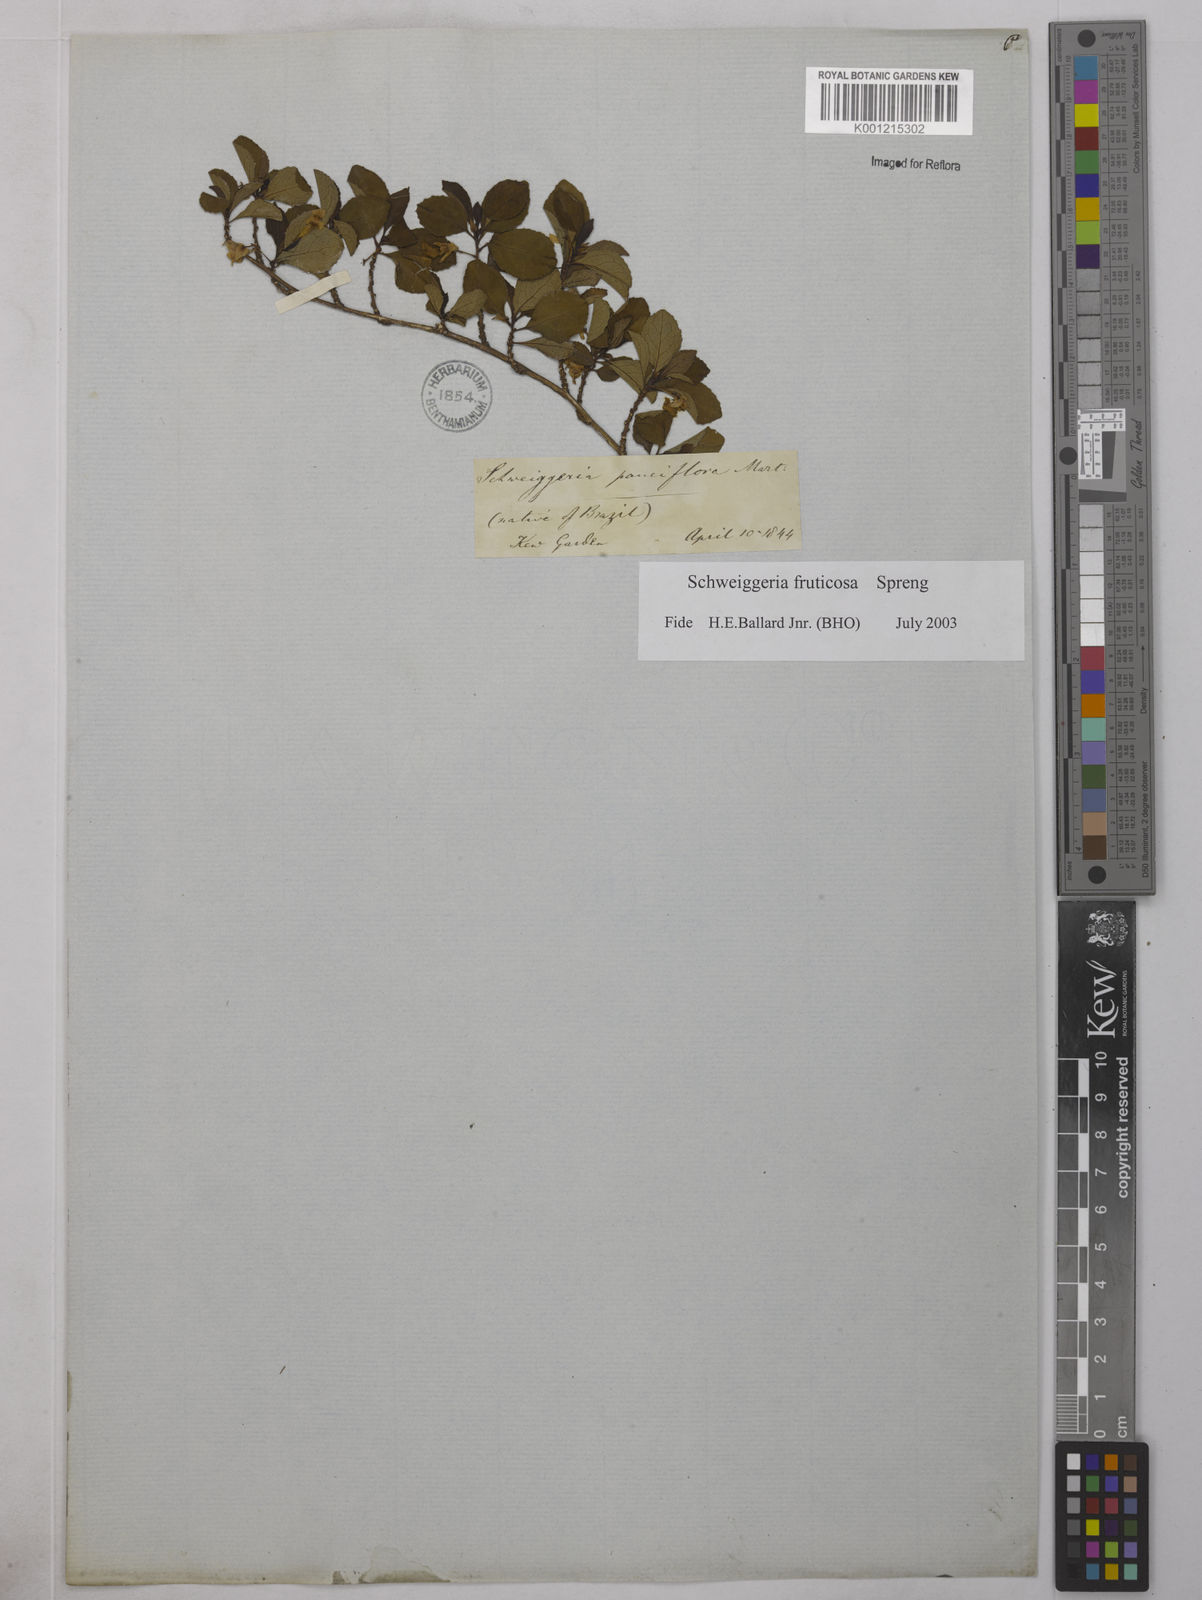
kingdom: Plantae
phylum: Tracheophyta
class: Magnoliopsida
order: Malpighiales
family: Violaceae
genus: Schweiggeria
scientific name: Schweiggeria fruticosa
